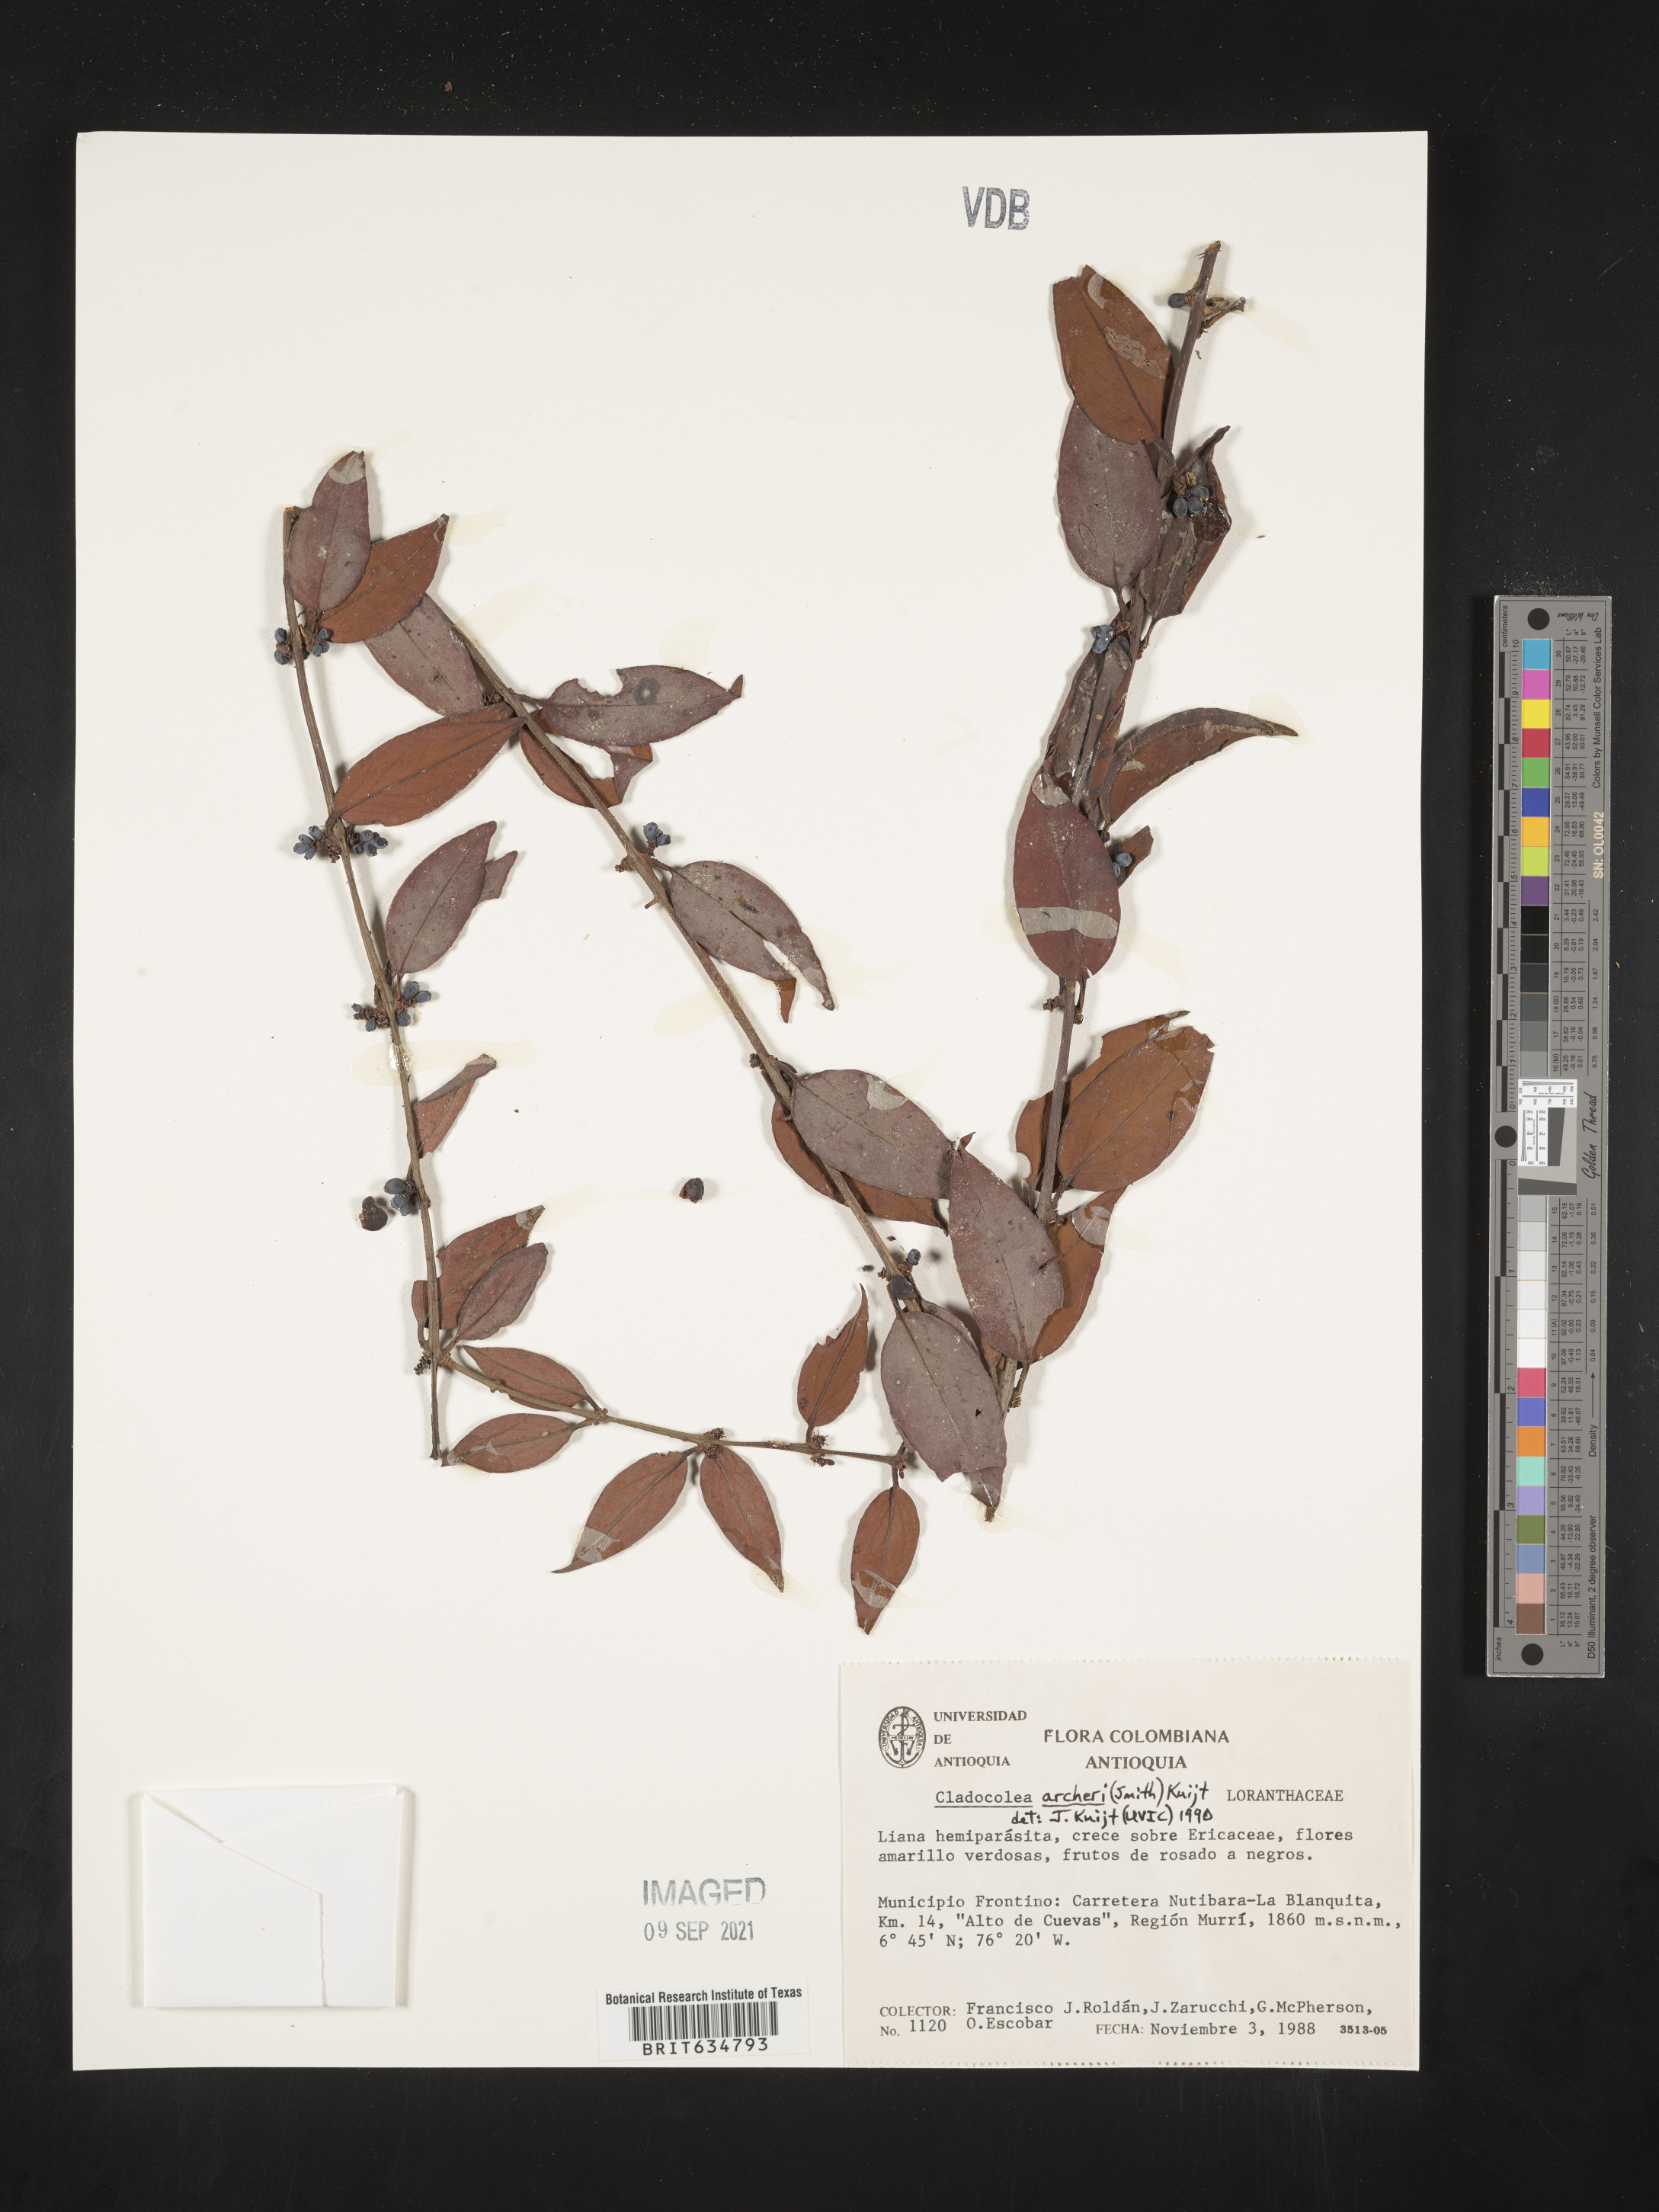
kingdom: Plantae
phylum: Tracheophyta
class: Magnoliopsida
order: Santalales
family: Loranthaceae
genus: Cladocolea
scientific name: Cladocolea
